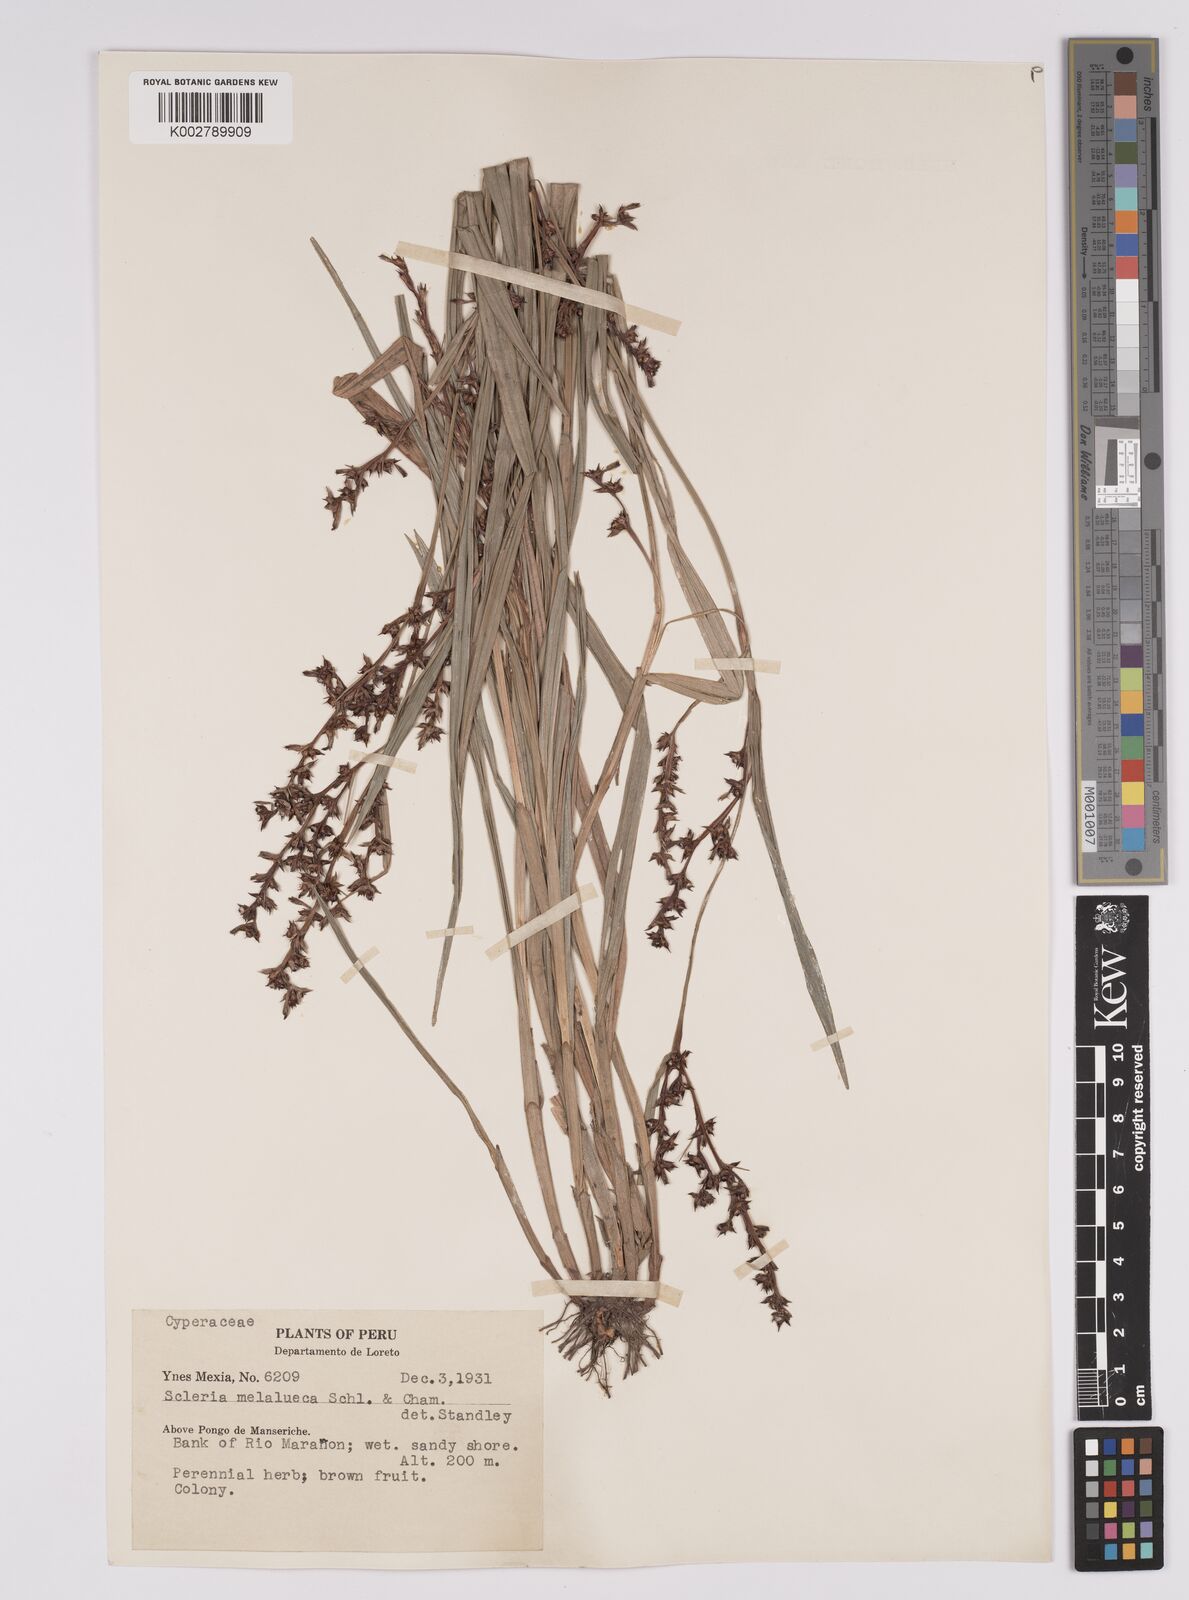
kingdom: Plantae
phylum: Tracheophyta
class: Liliopsida
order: Poales
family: Cyperaceae
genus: Scleria
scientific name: Scleria gaertneri
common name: Cortadera blanca
